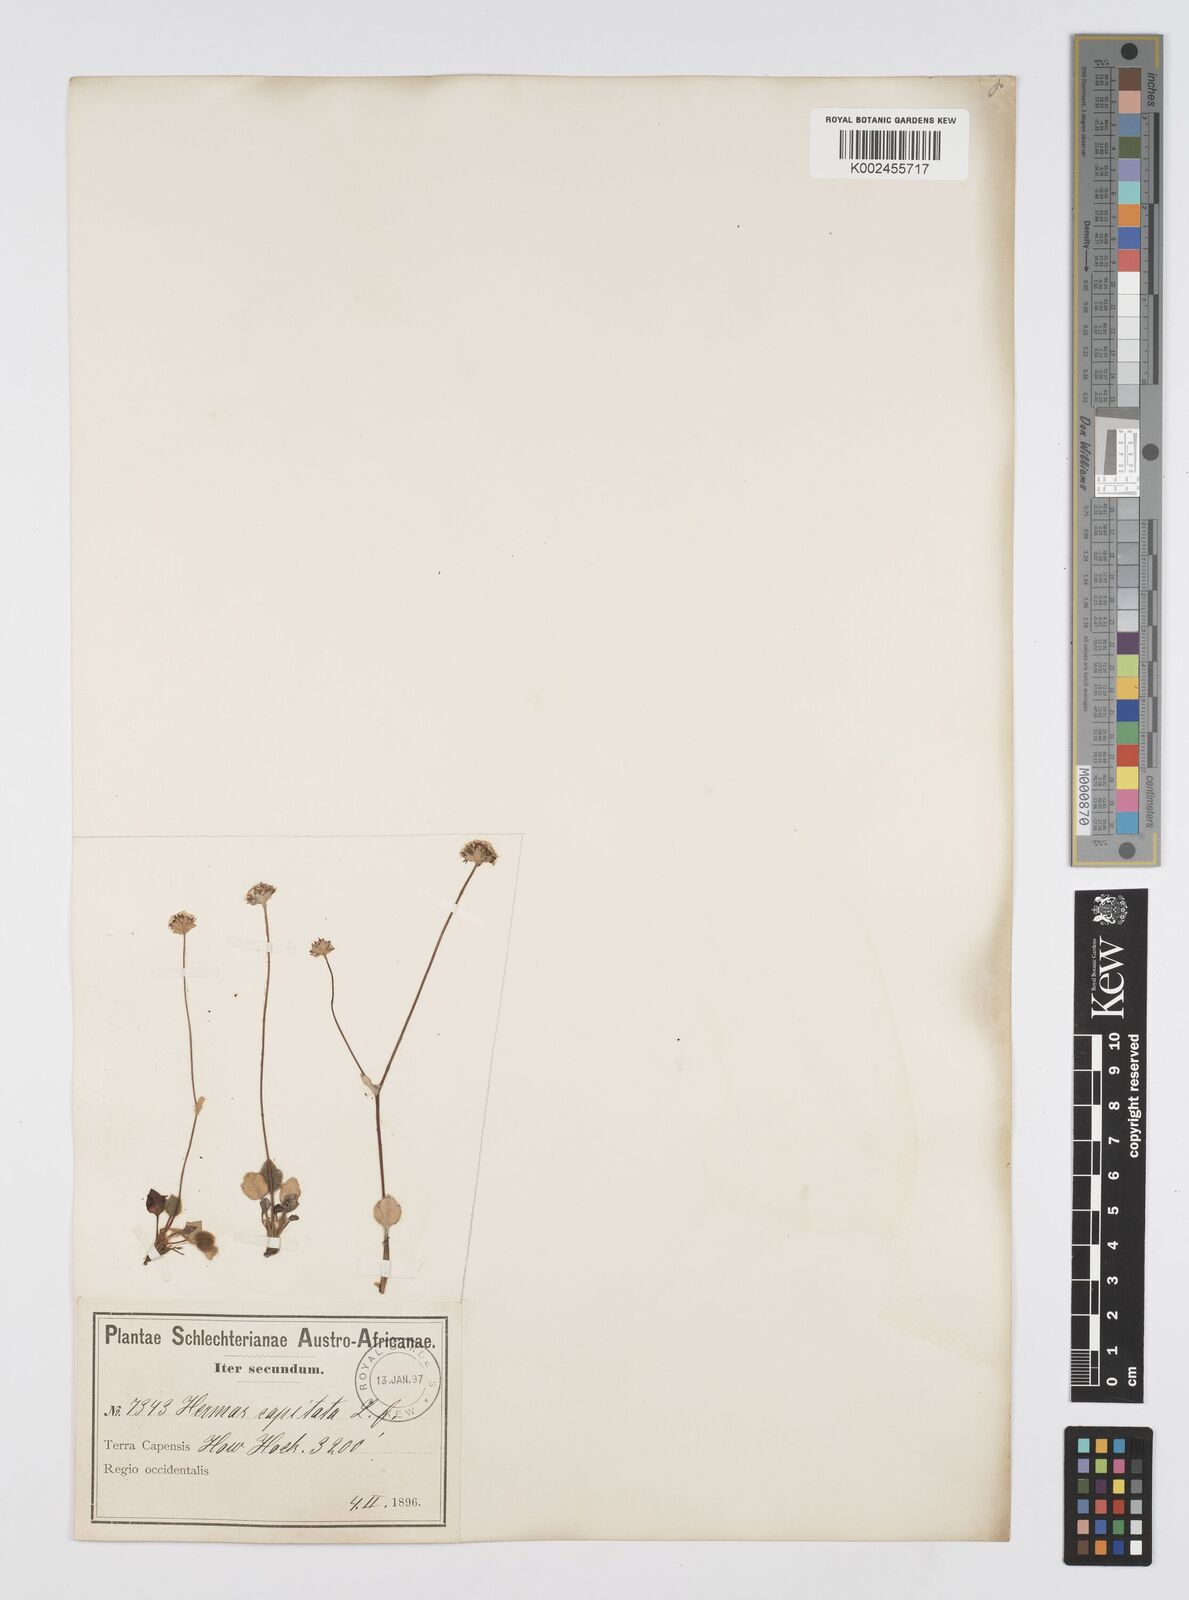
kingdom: Plantae
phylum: Tracheophyta
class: Magnoliopsida
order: Apiales
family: Apiaceae
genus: Hermas
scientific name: Hermas capitata
